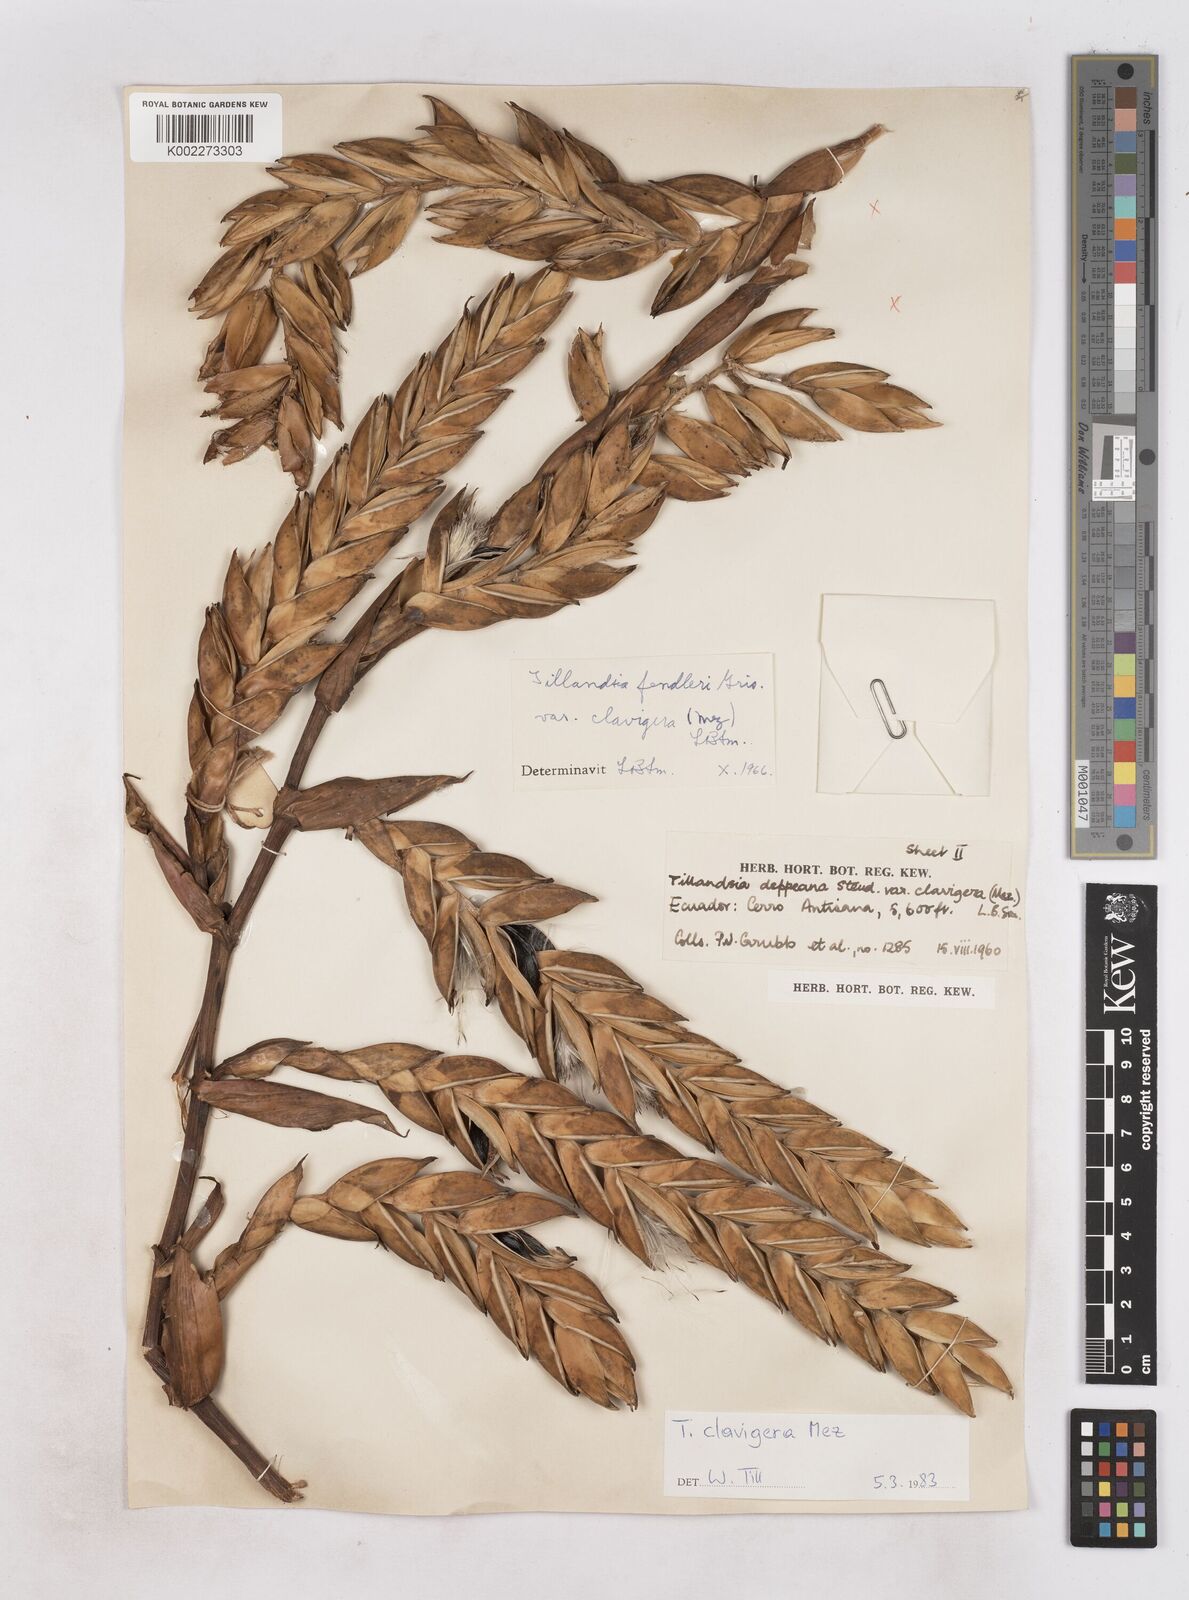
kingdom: Plantae
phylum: Tracheophyta
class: Liliopsida
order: Poales
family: Bromeliaceae
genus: Tillandsia
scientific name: Tillandsia clavigera
